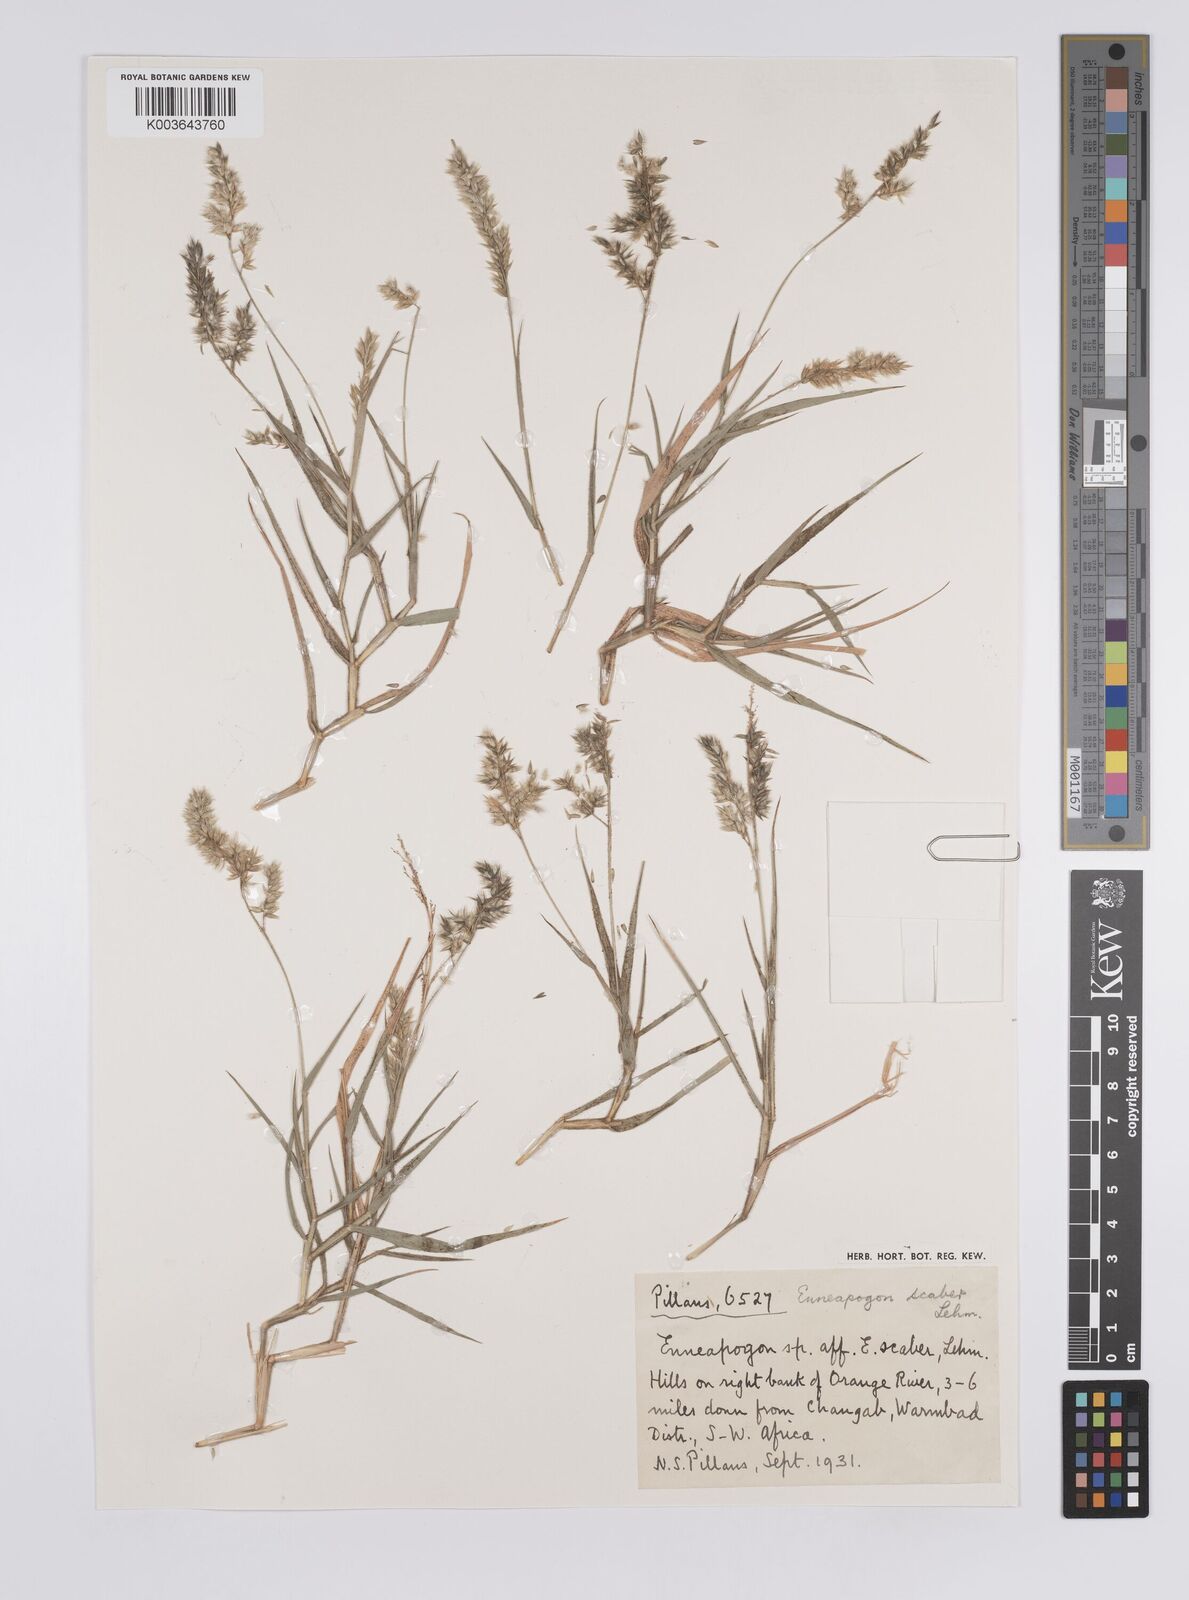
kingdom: Plantae
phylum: Tracheophyta
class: Liliopsida
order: Poales
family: Poaceae
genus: Enneapogon
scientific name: Enneapogon scaber
